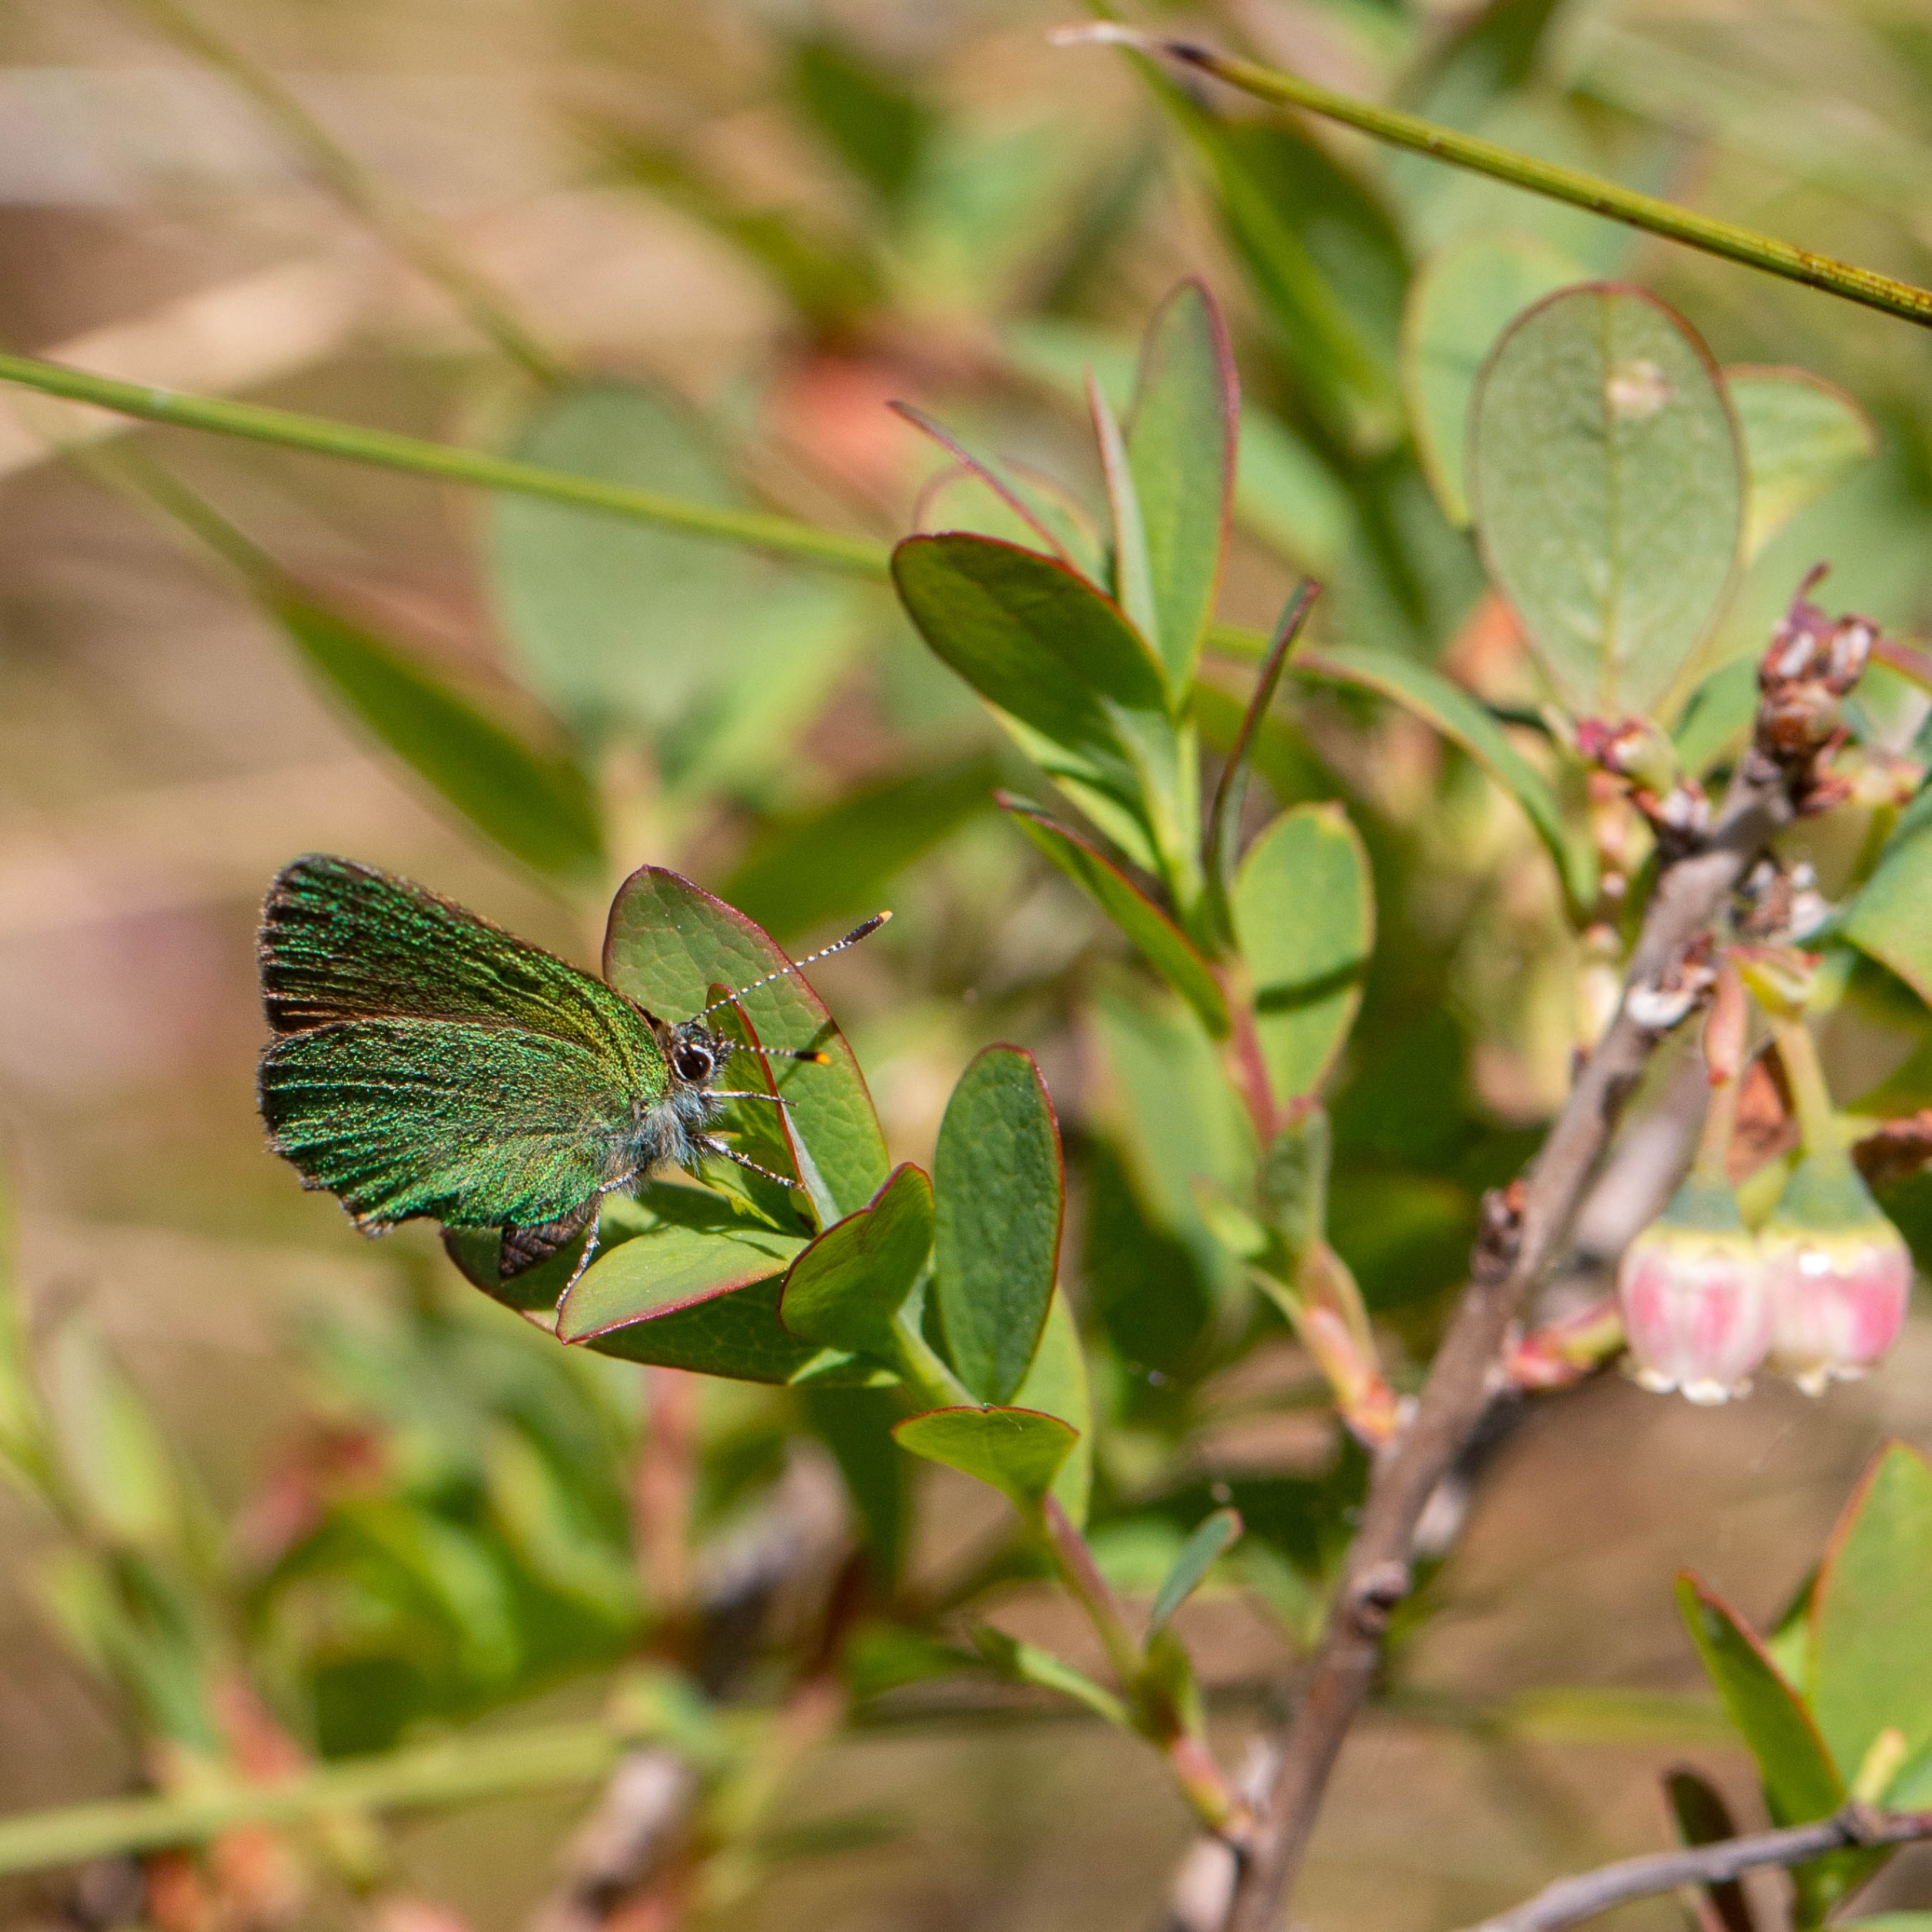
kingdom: Animalia
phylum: Arthropoda
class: Insecta
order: Lepidoptera
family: Lycaenidae
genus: Callophrys
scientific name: Callophrys rubi
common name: Grøn busksommerfugl
